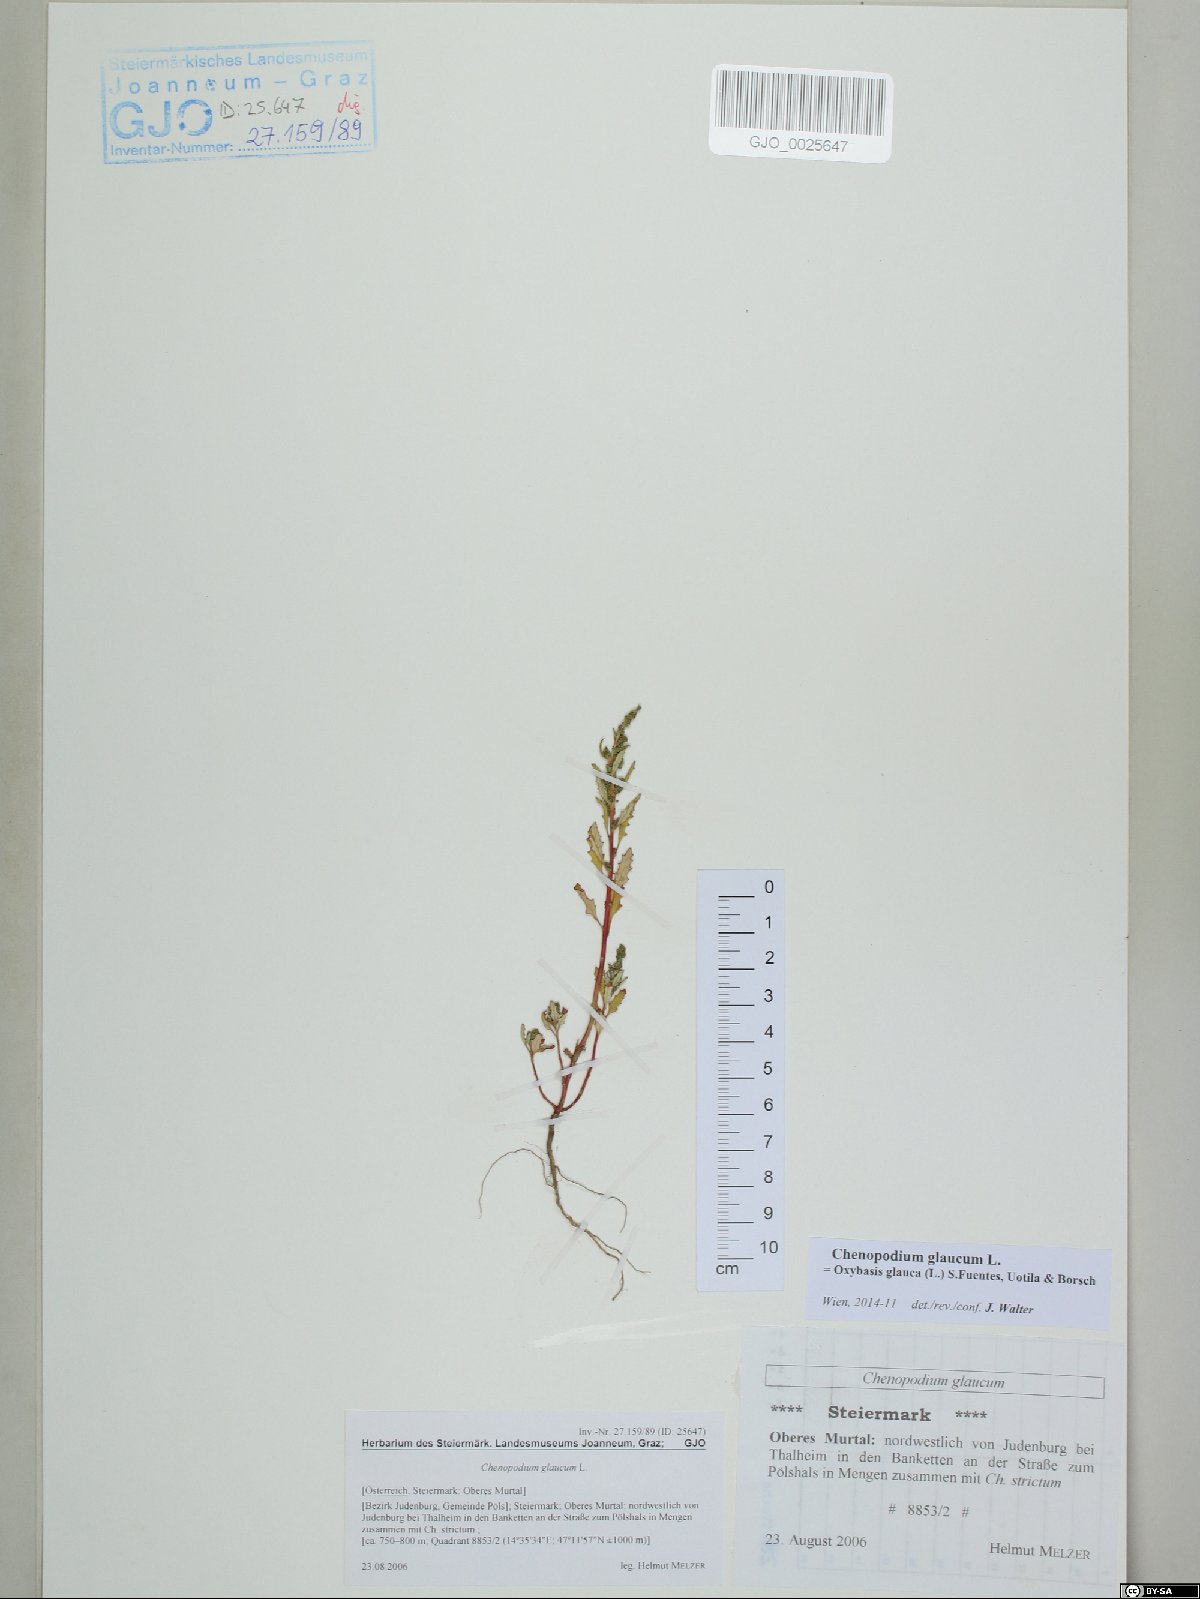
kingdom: Plantae
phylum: Tracheophyta
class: Magnoliopsida
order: Caryophyllales
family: Amaranthaceae
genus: Oxybasis
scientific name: Oxybasis glauca
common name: Glaucous goosefoot
